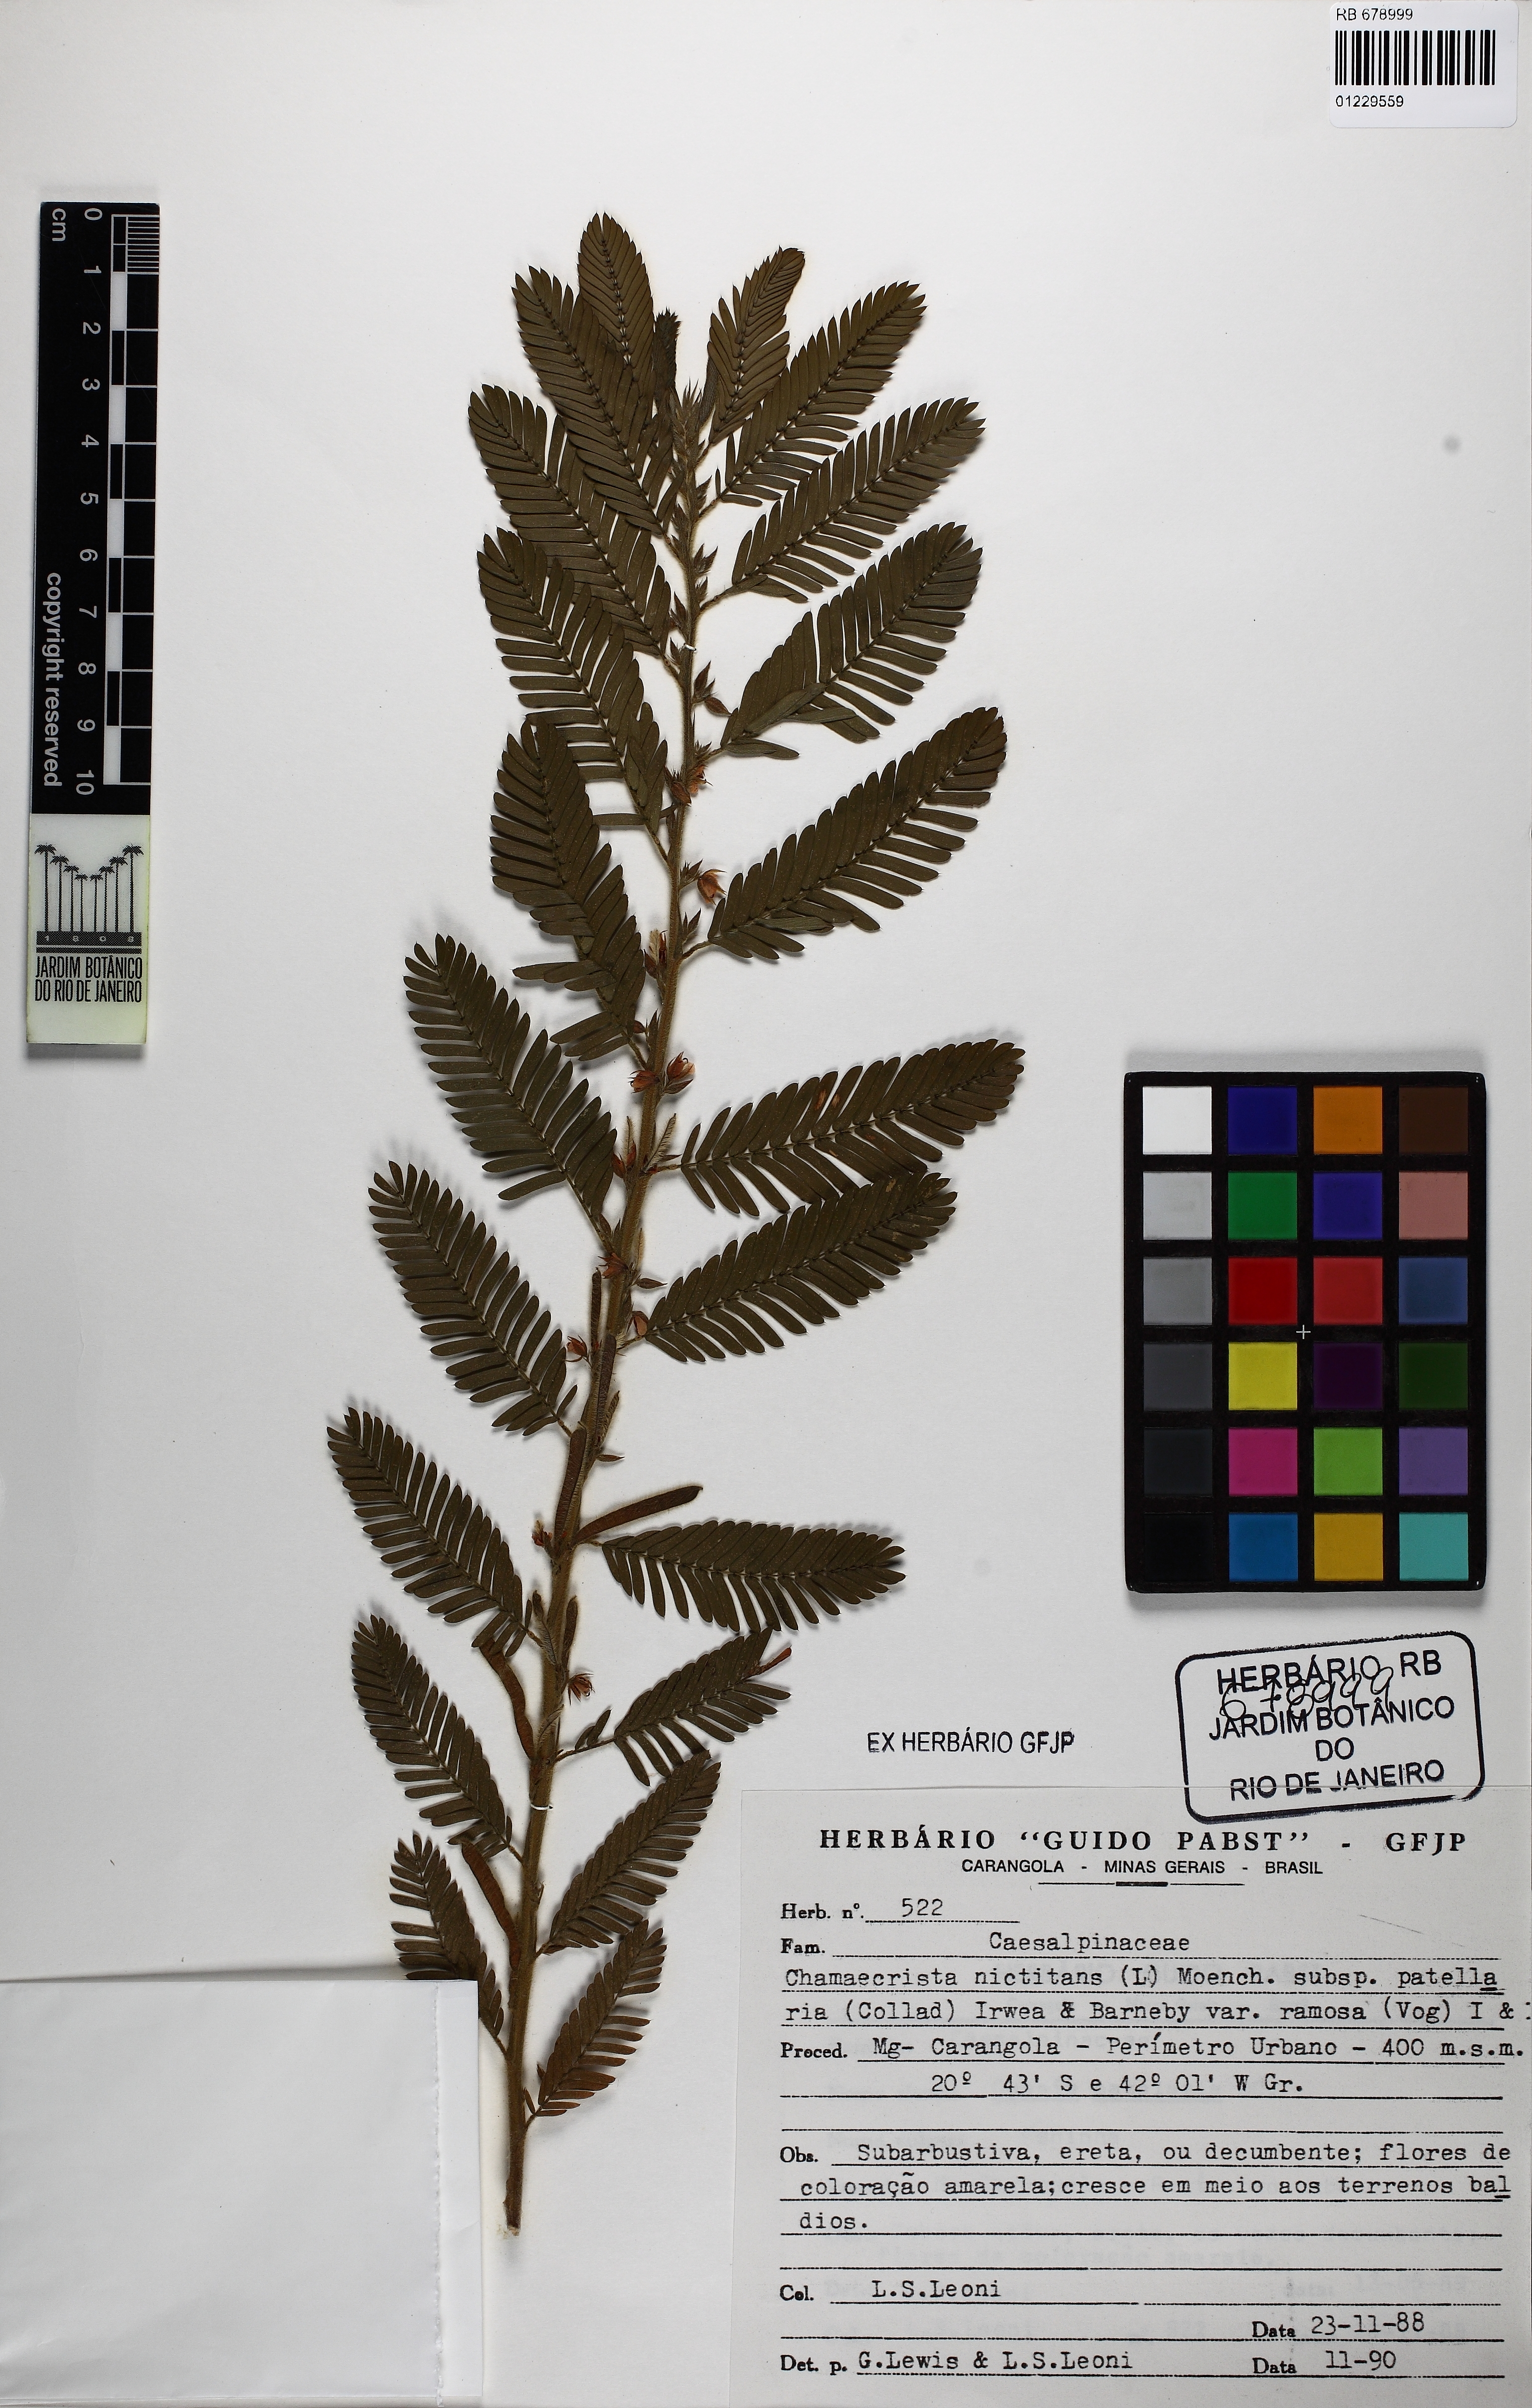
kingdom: Plantae
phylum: Tracheophyta
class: Magnoliopsida
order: Fabales
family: Fabaceae
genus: Chamaecrista
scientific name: Chamaecrista nictitans
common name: Sensitive cassia
